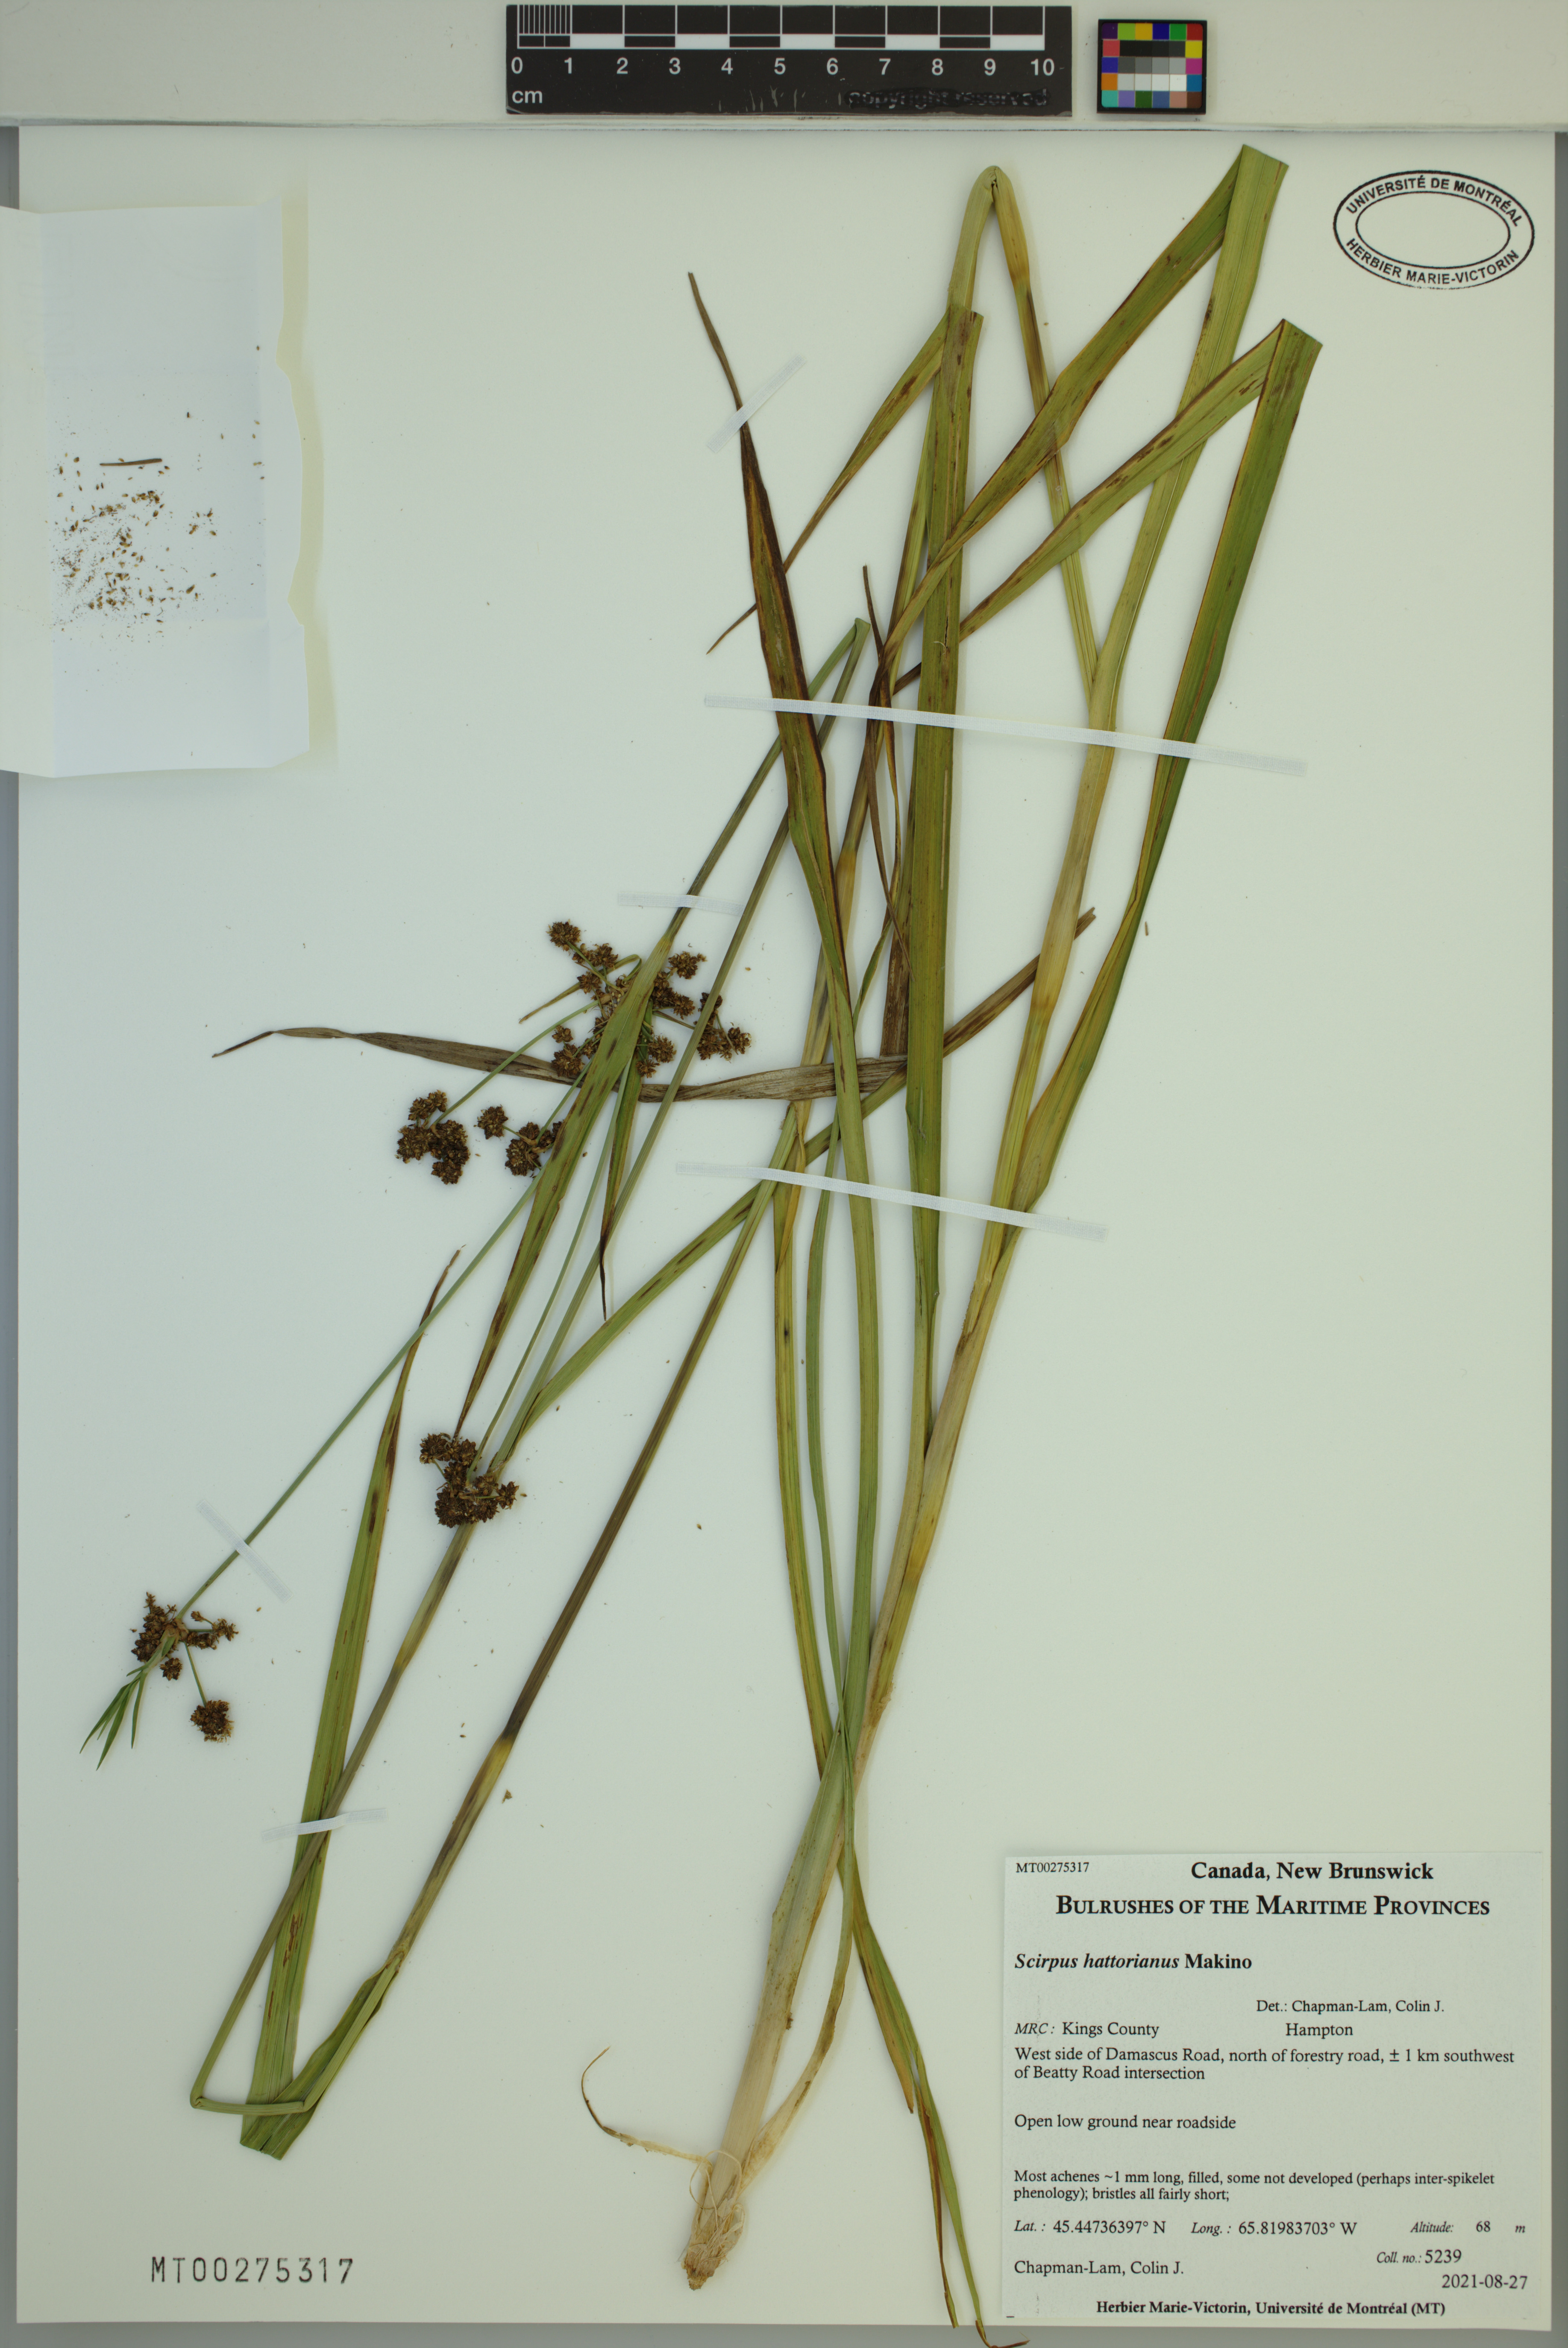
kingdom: Plantae
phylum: Tracheophyta
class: Liliopsida
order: Poales
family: Cyperaceae
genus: Scirpus
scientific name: Scirpus hattorianus
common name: Early dark-green bulrush
